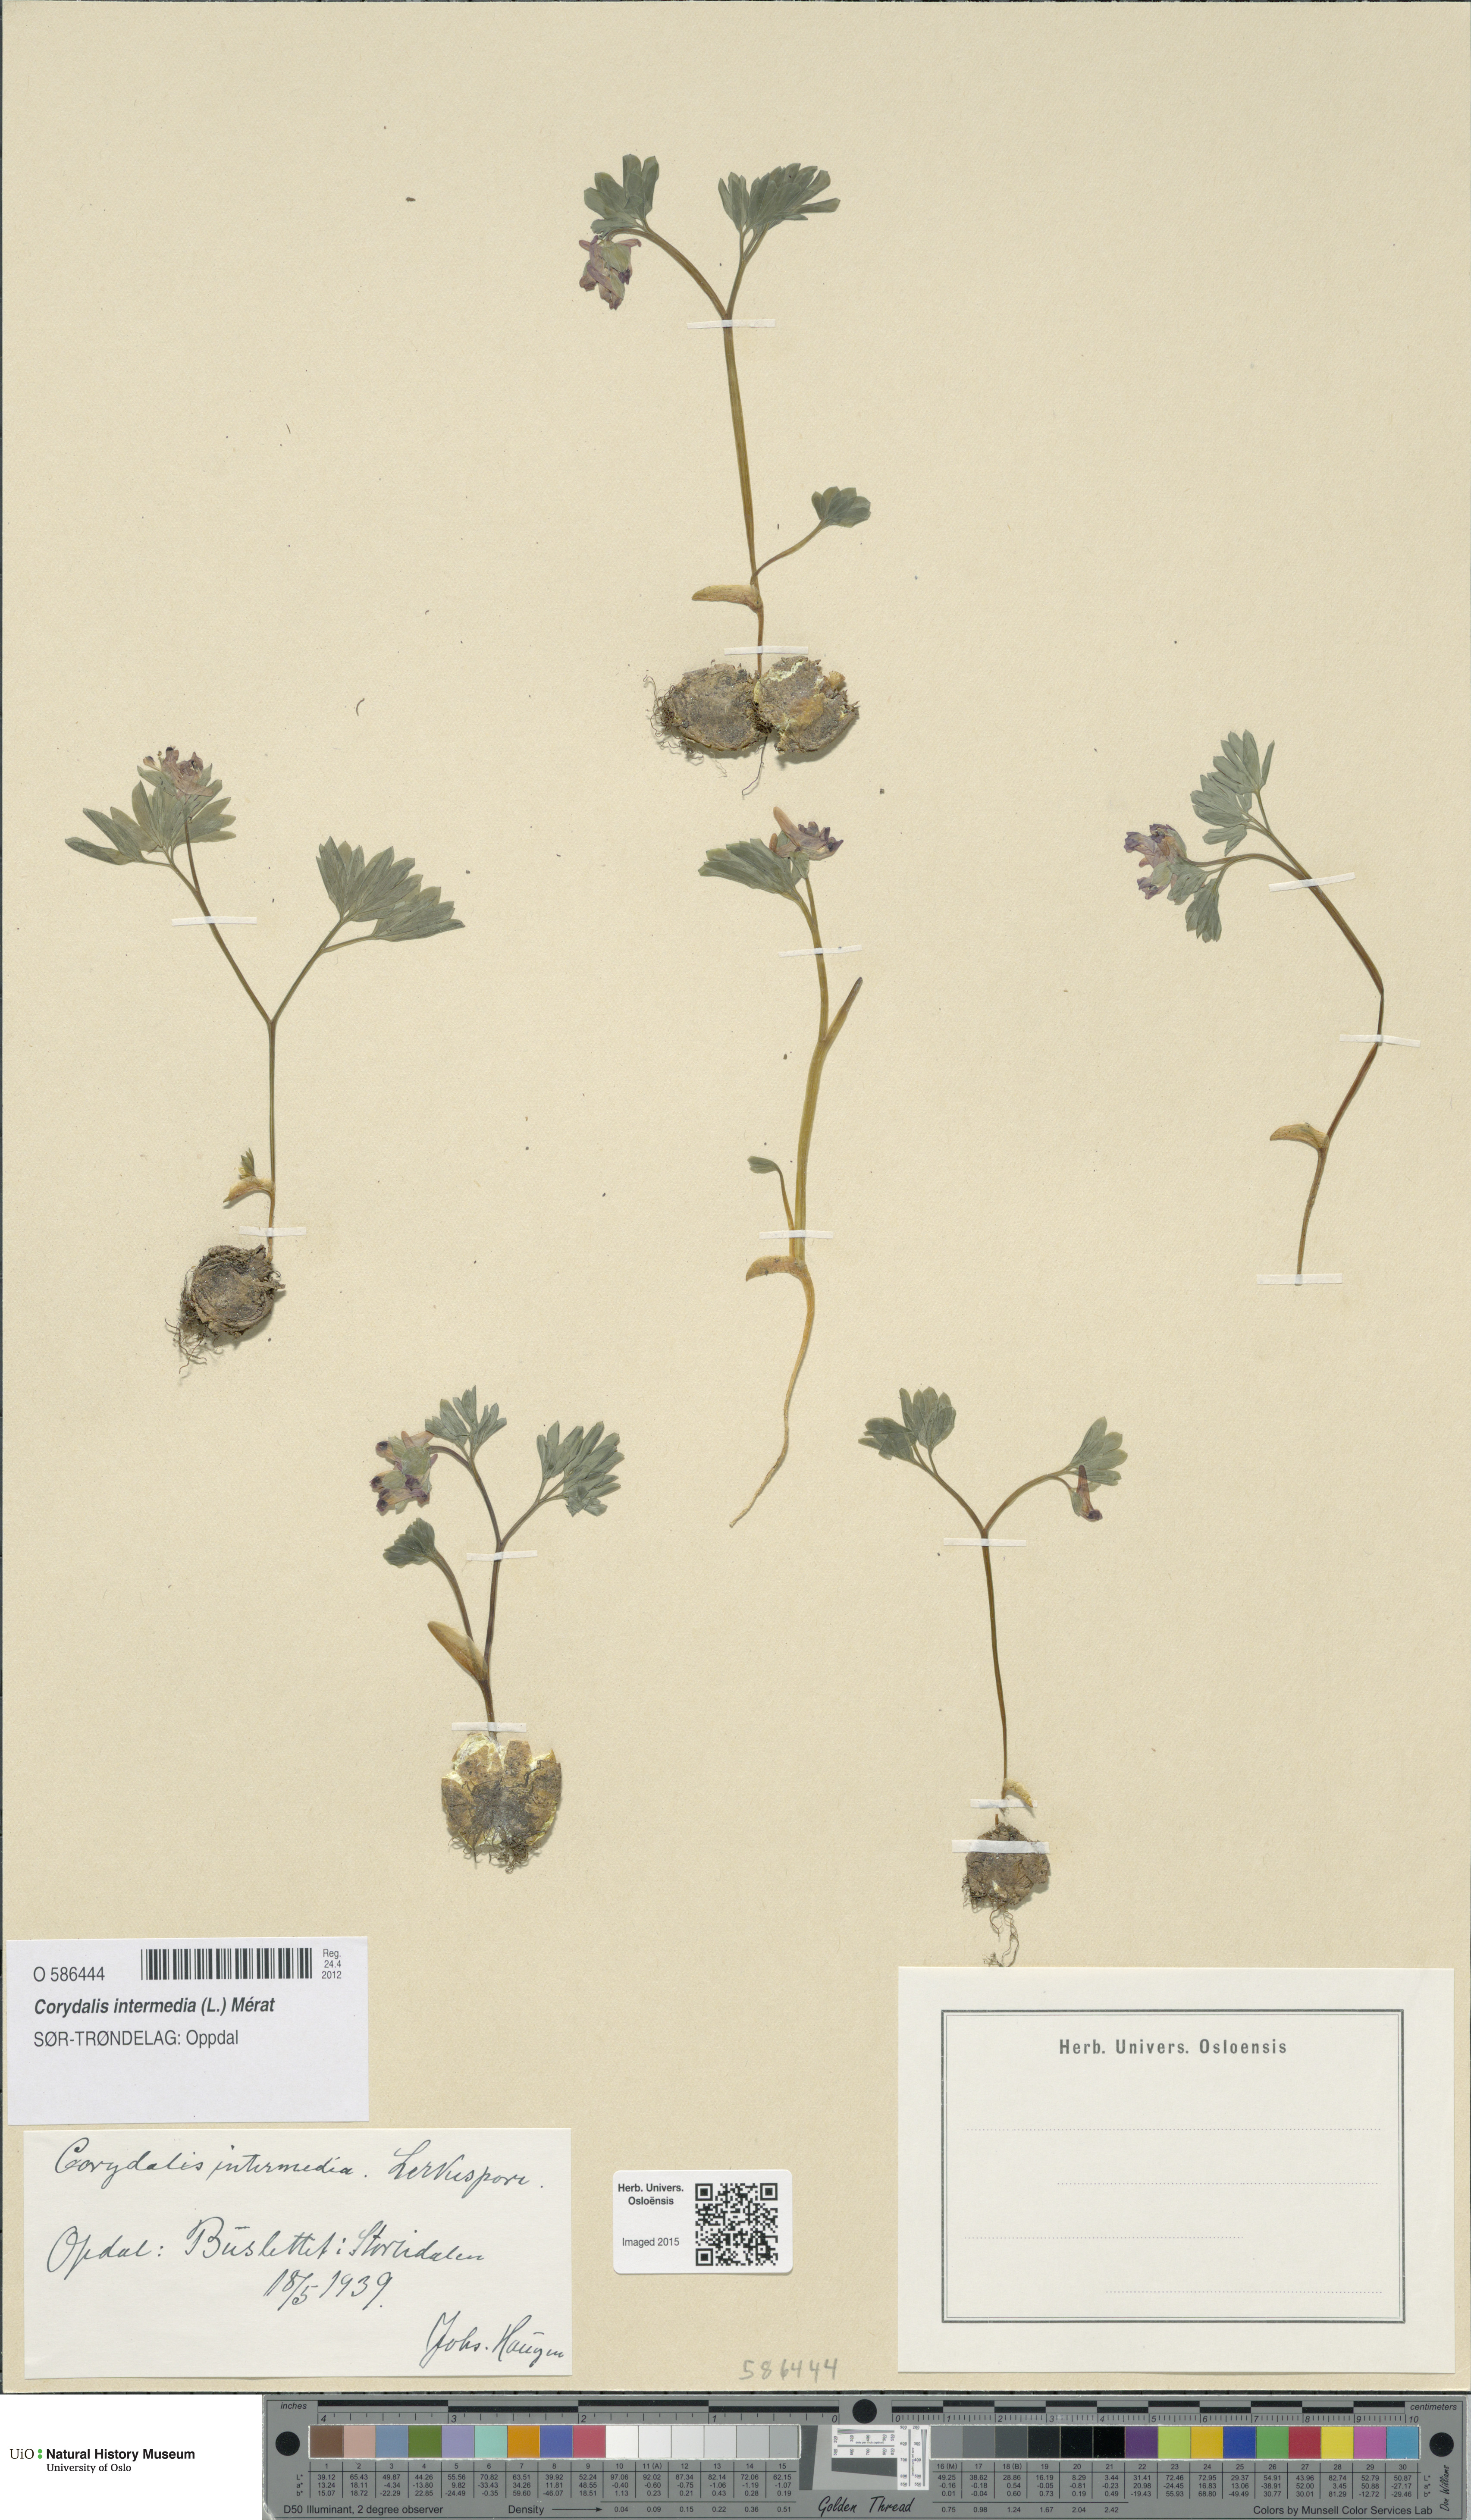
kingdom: Plantae
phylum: Tracheophyta
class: Magnoliopsida
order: Ranunculales
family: Papaveraceae
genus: Corydalis
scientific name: Corydalis intermedia
